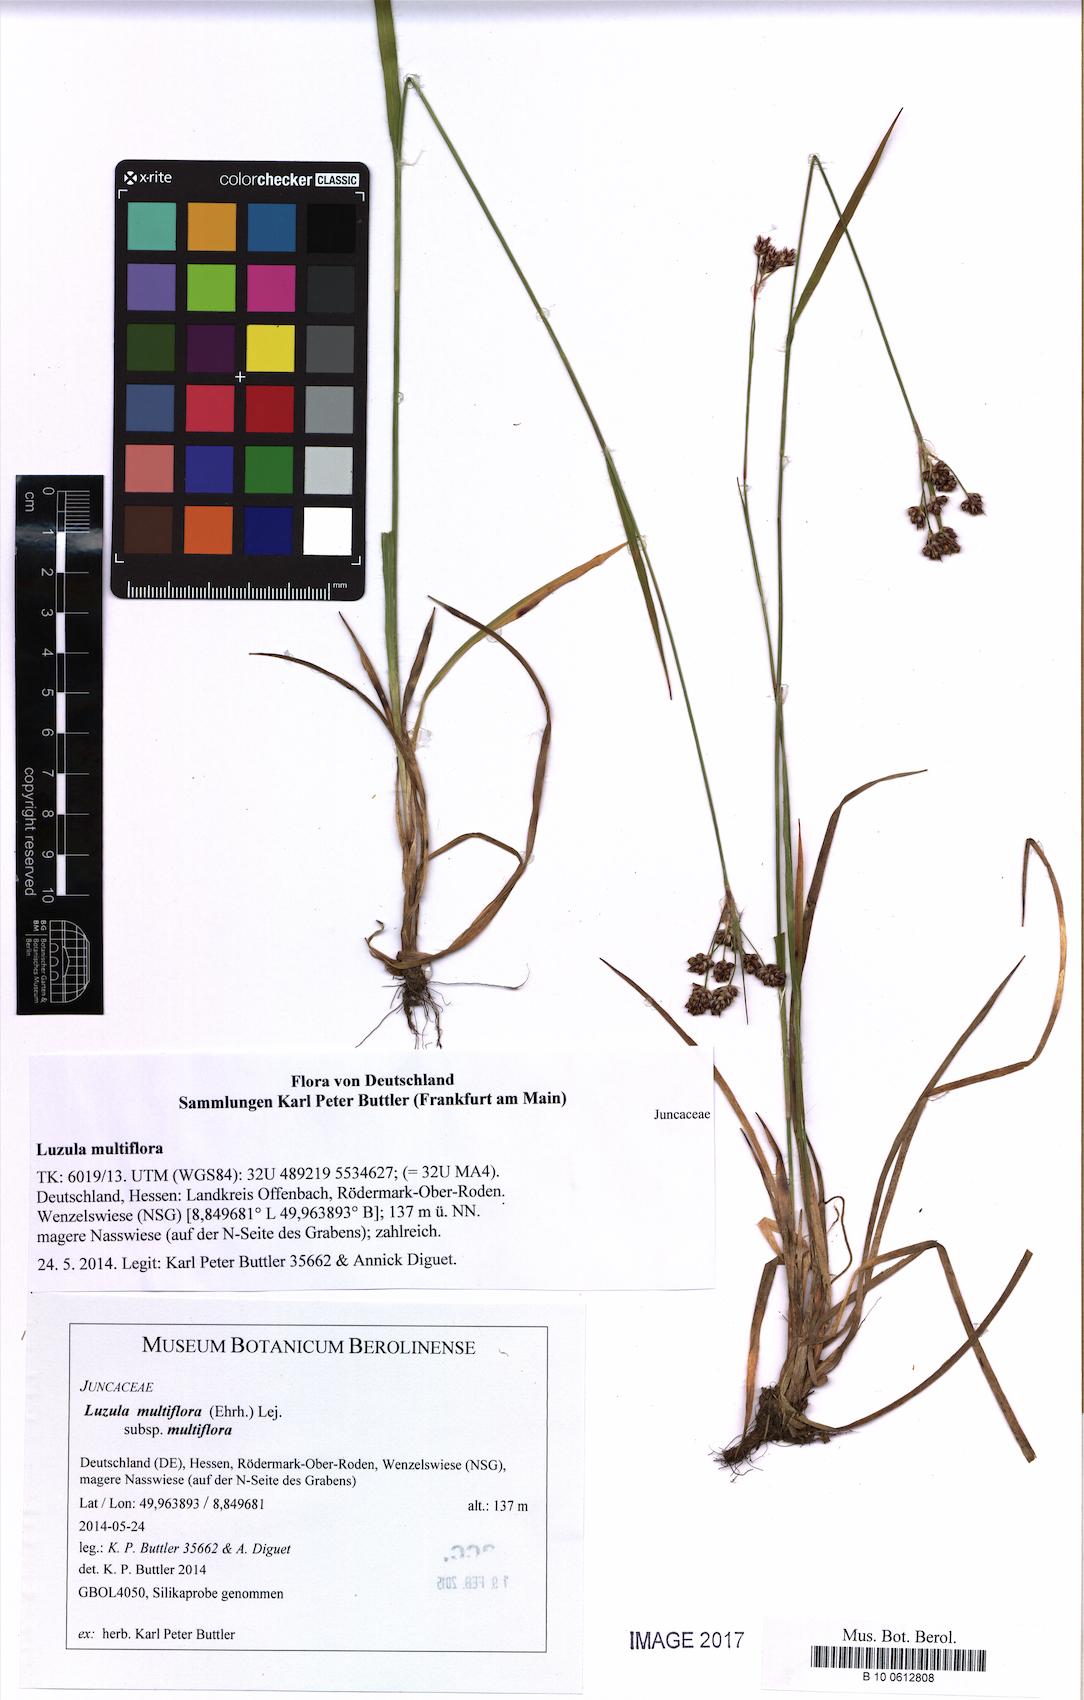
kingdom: Plantae
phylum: Tracheophyta
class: Liliopsida
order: Poales
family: Juncaceae
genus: Luzula
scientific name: Luzula multiflora
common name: Heath wood-rush
